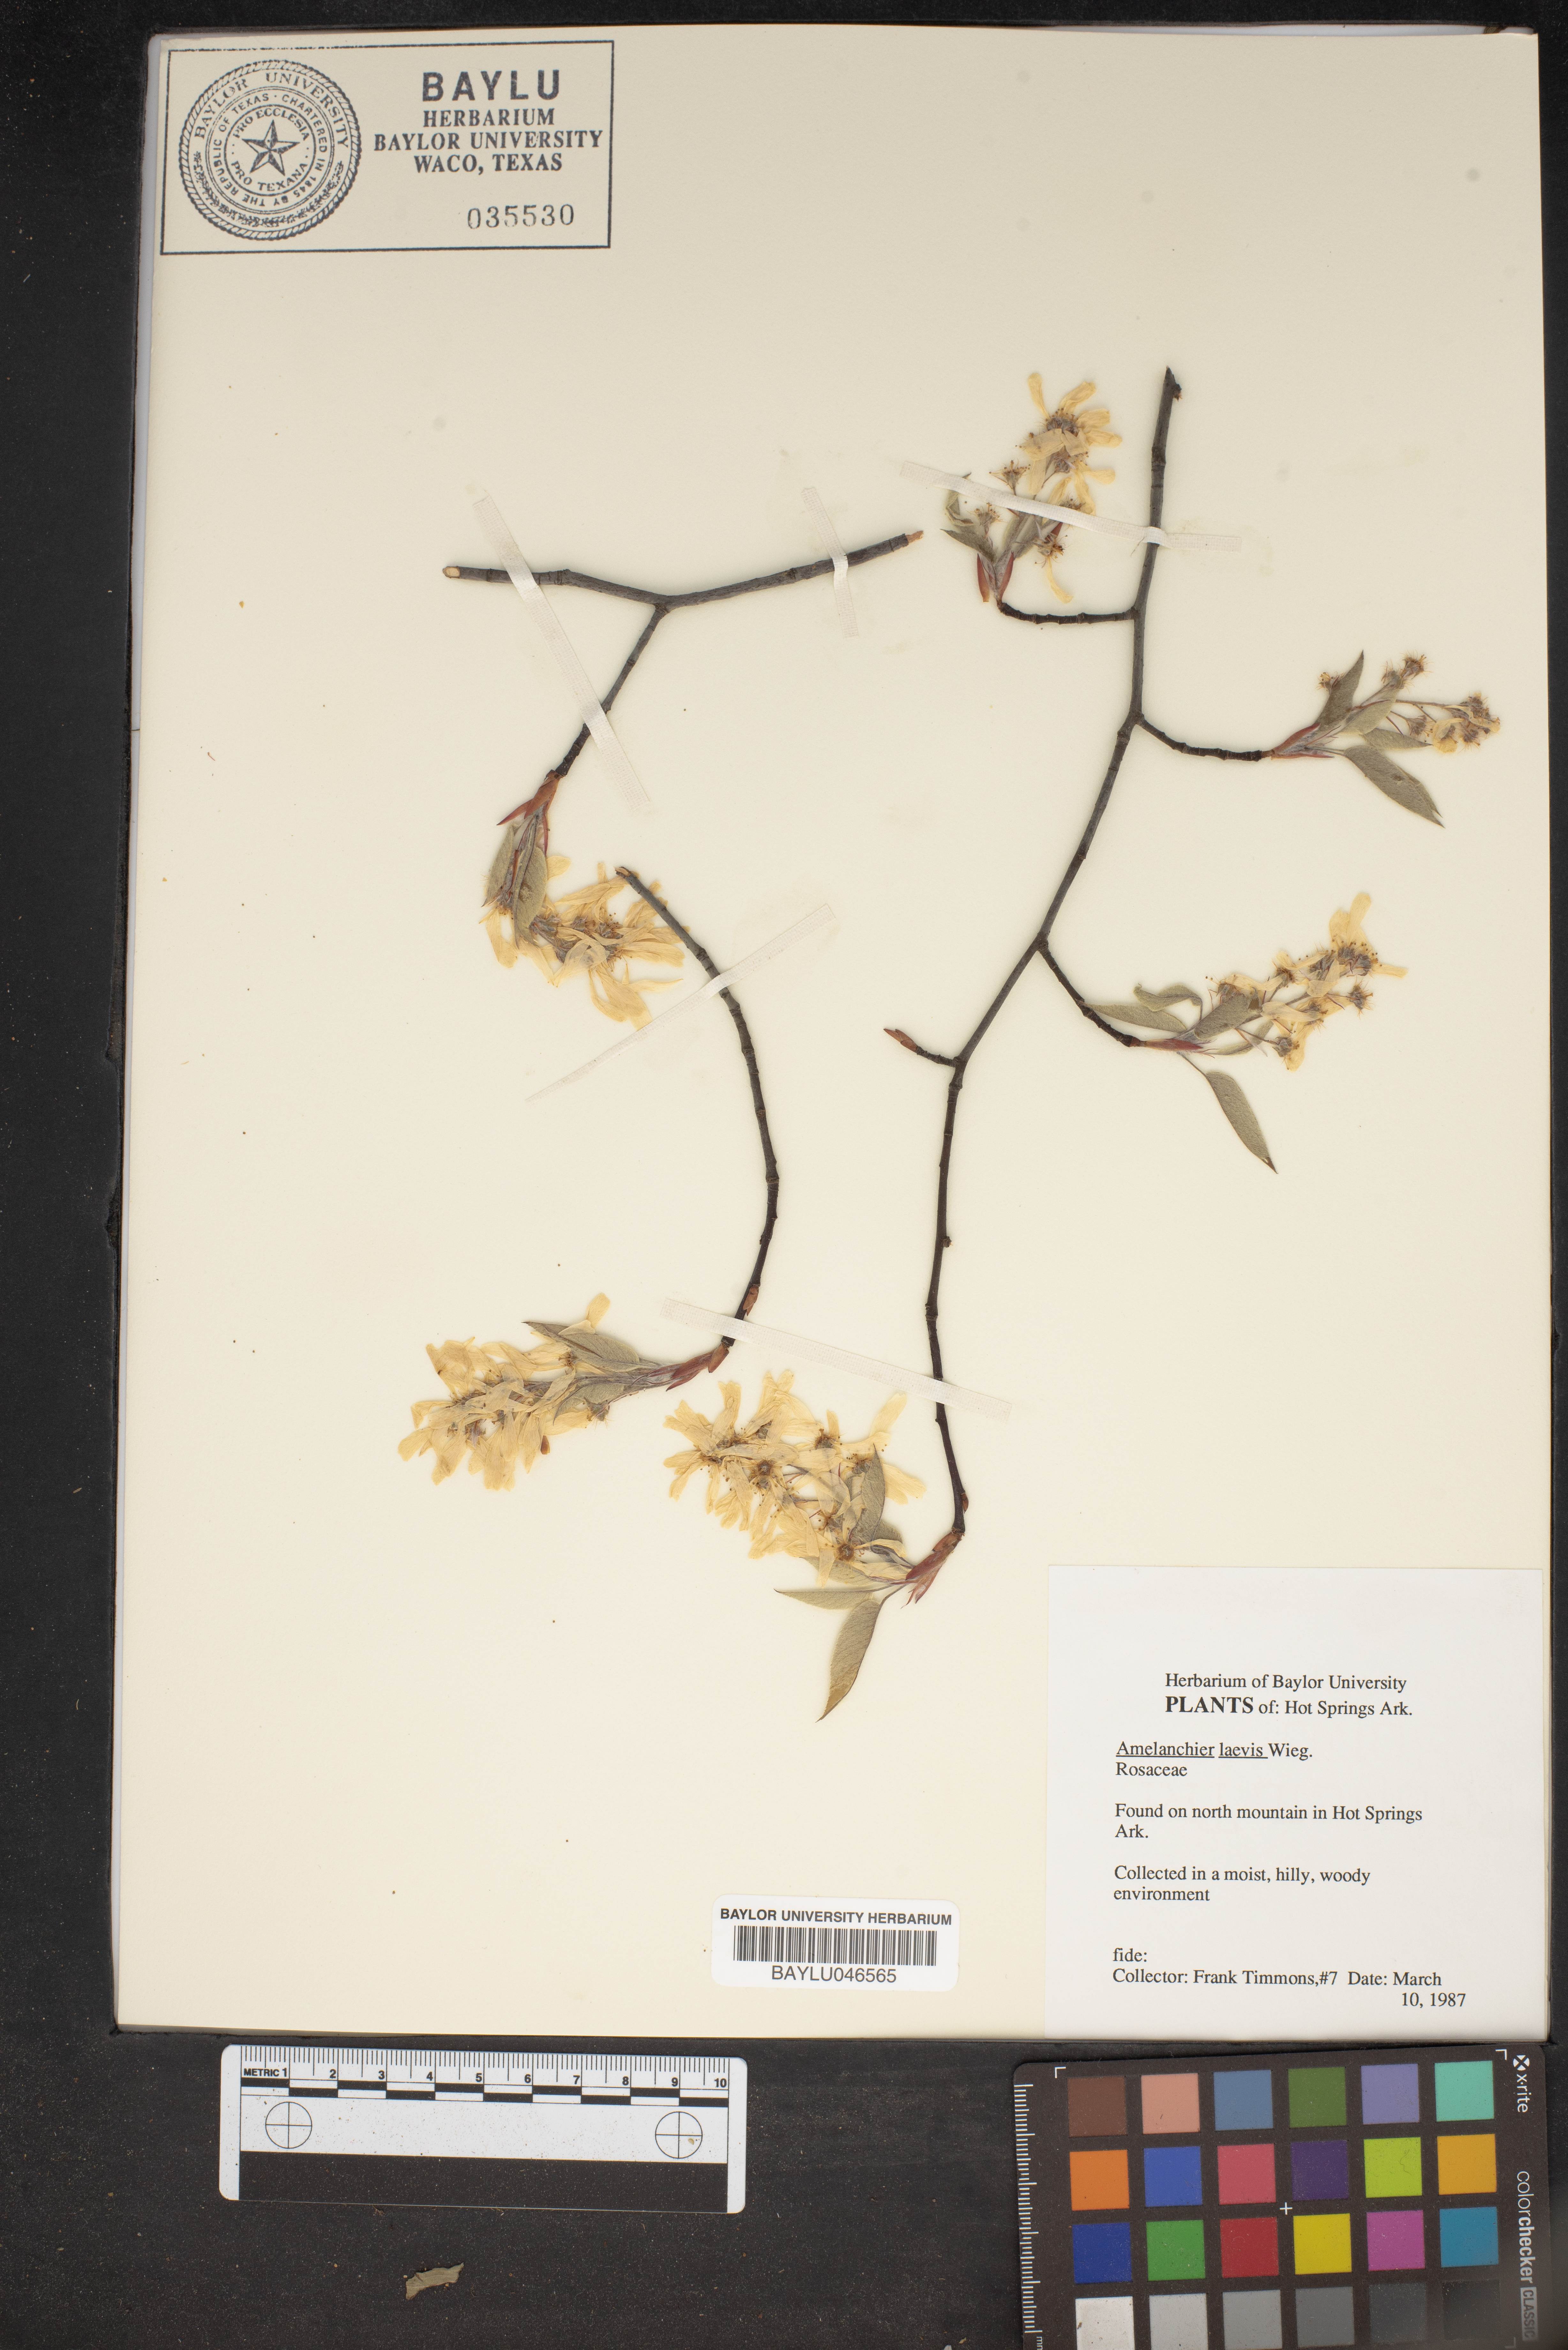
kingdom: Plantae
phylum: Tracheophyta
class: Magnoliopsida
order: Rosales
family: Rosaceae
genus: Amelanchier
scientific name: Amelanchier laevis
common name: Allegheny serviceberry
